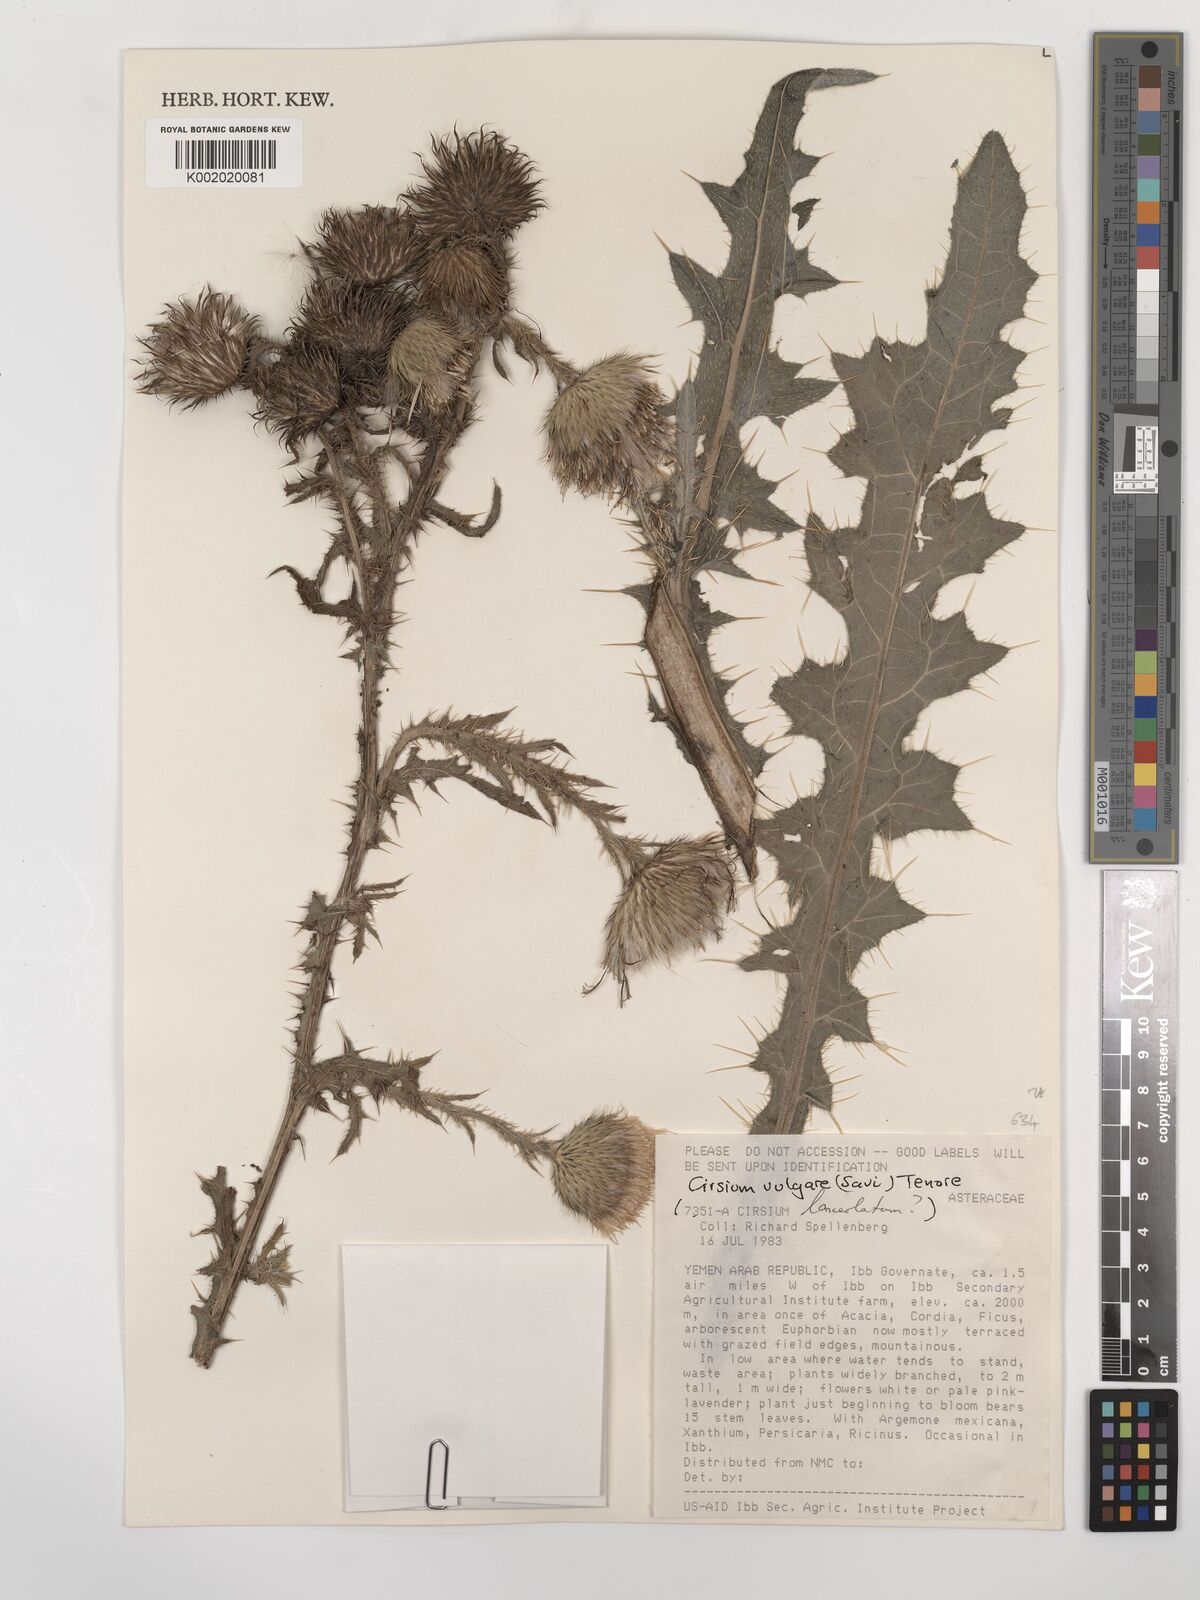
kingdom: Plantae
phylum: Tracheophyta
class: Magnoliopsida
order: Asterales
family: Asteraceae
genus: Cirsium
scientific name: Cirsium vulgare
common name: Bull thistle
